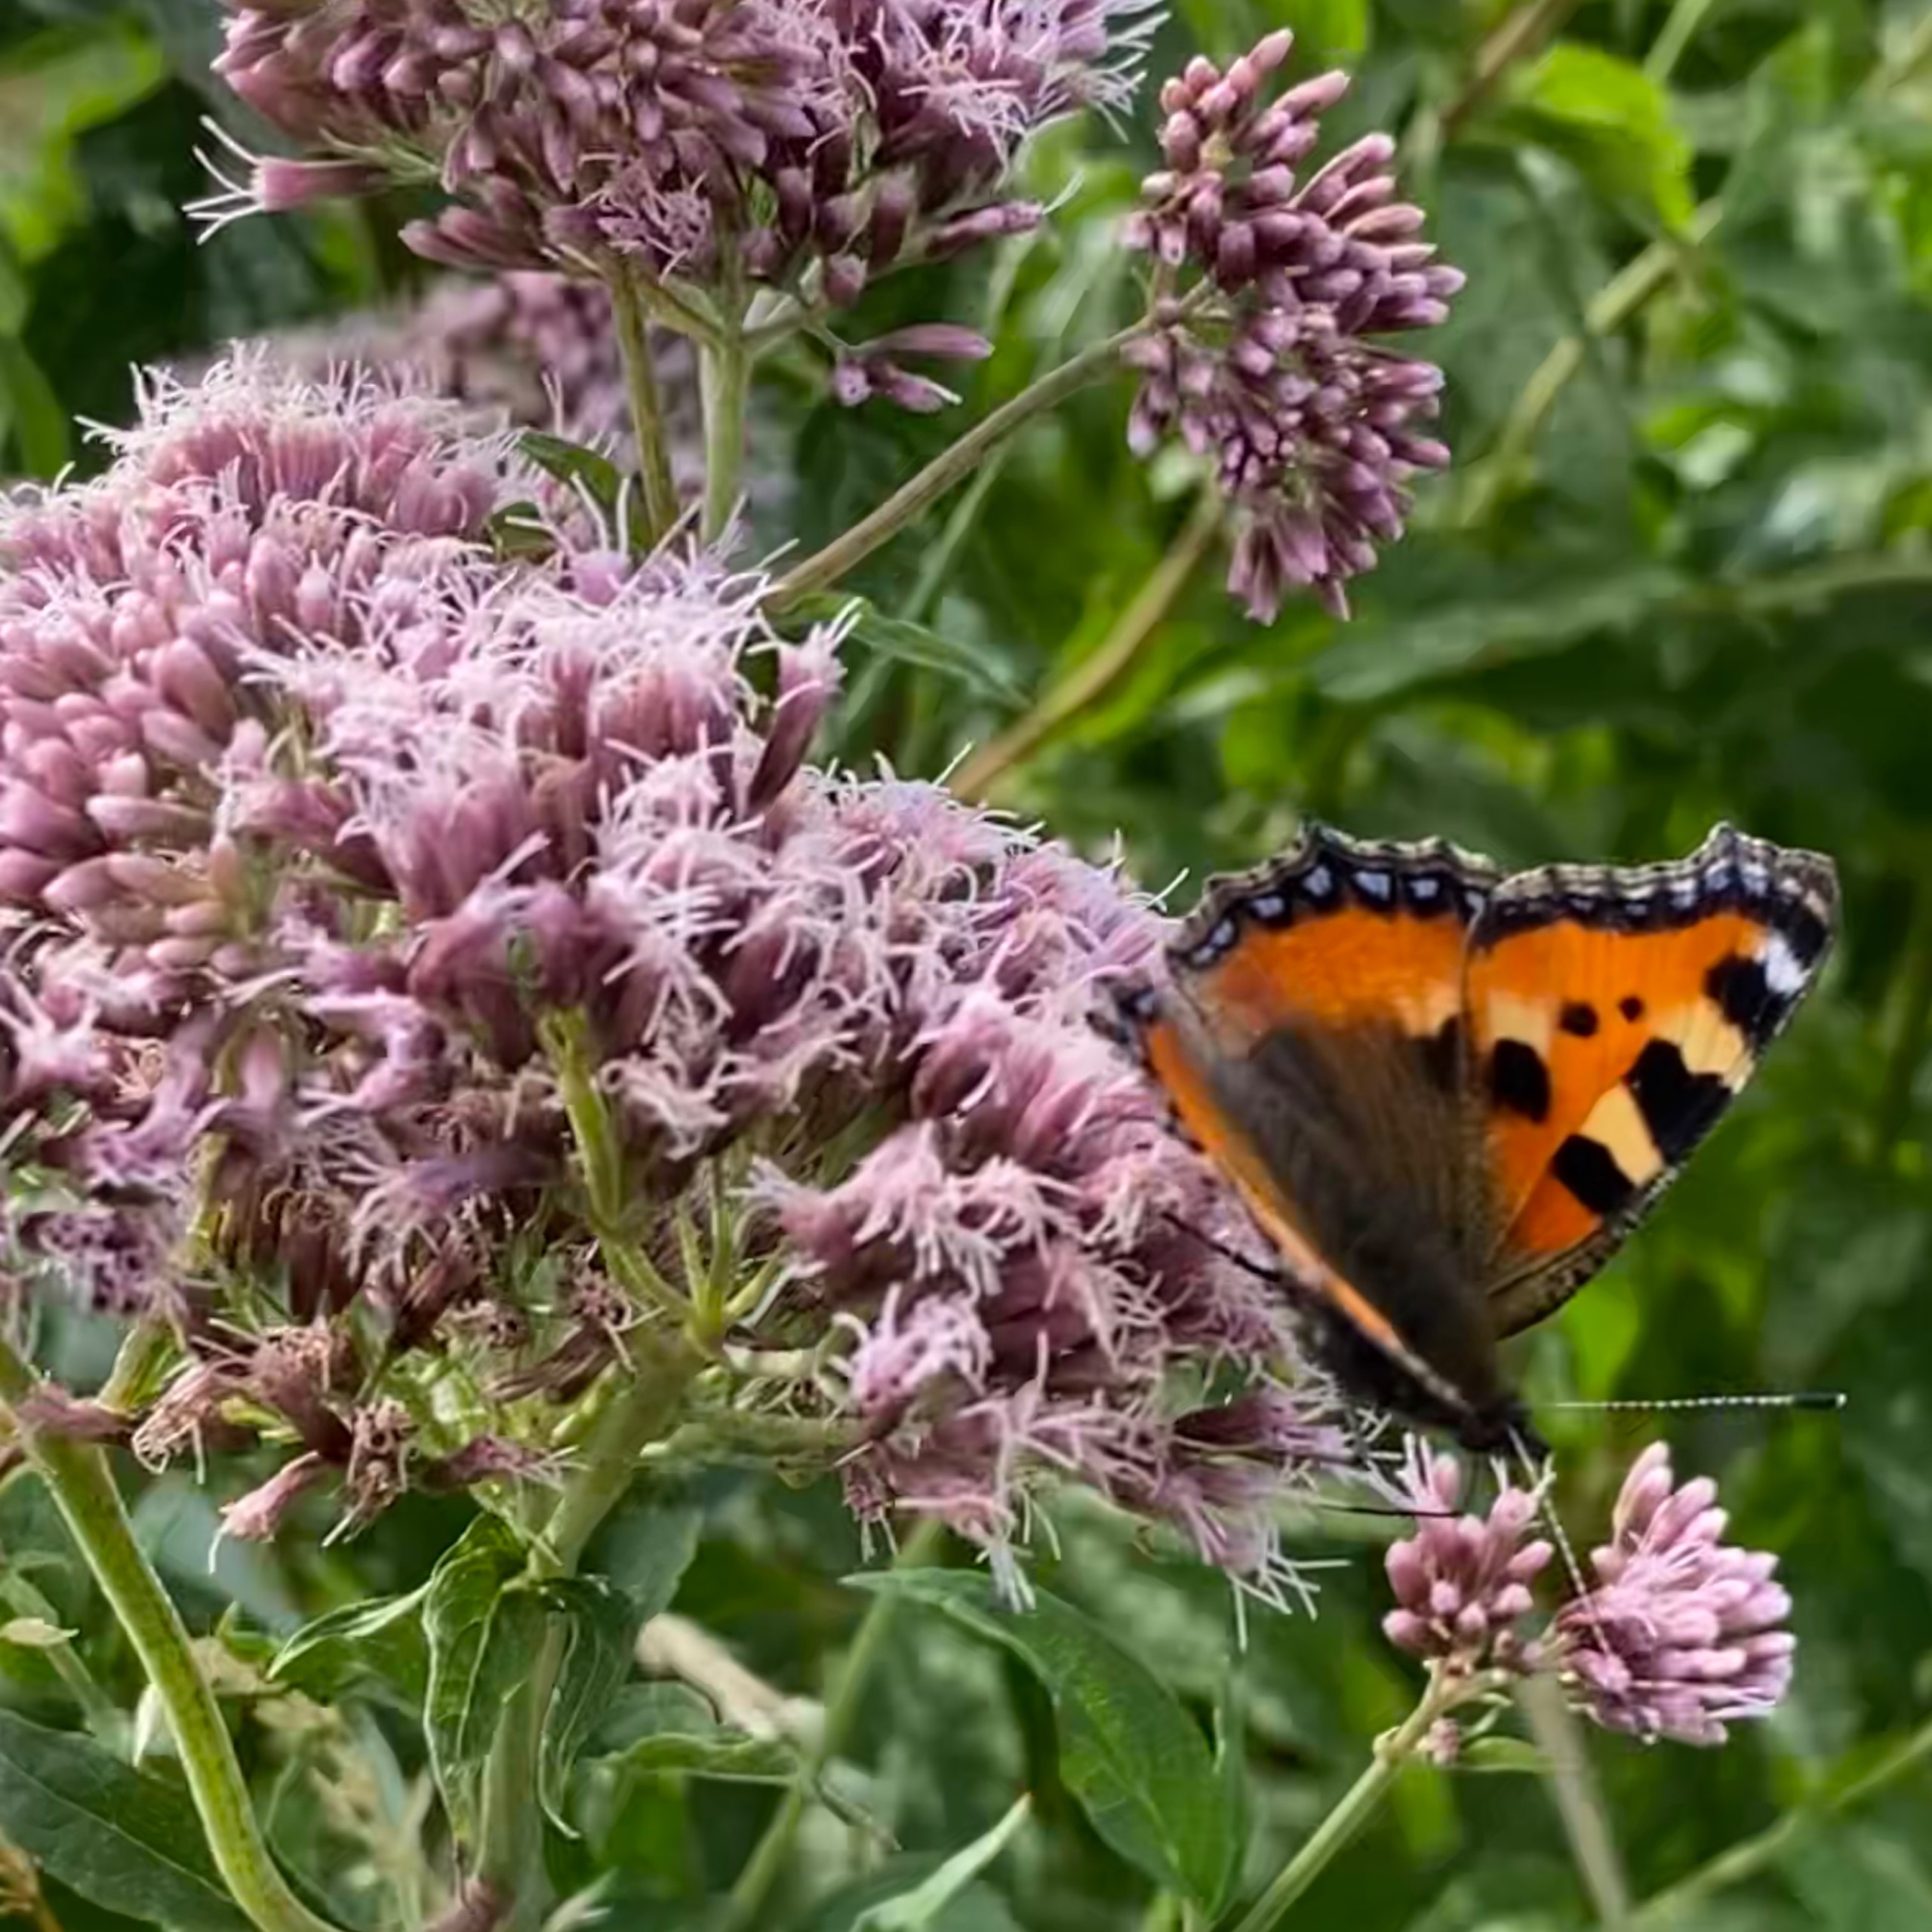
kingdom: Plantae
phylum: Tracheophyta
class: Magnoliopsida
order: Asterales
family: Asteraceae
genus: Eupatorium
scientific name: Eupatorium cannabinum
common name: Hjortetrøst
